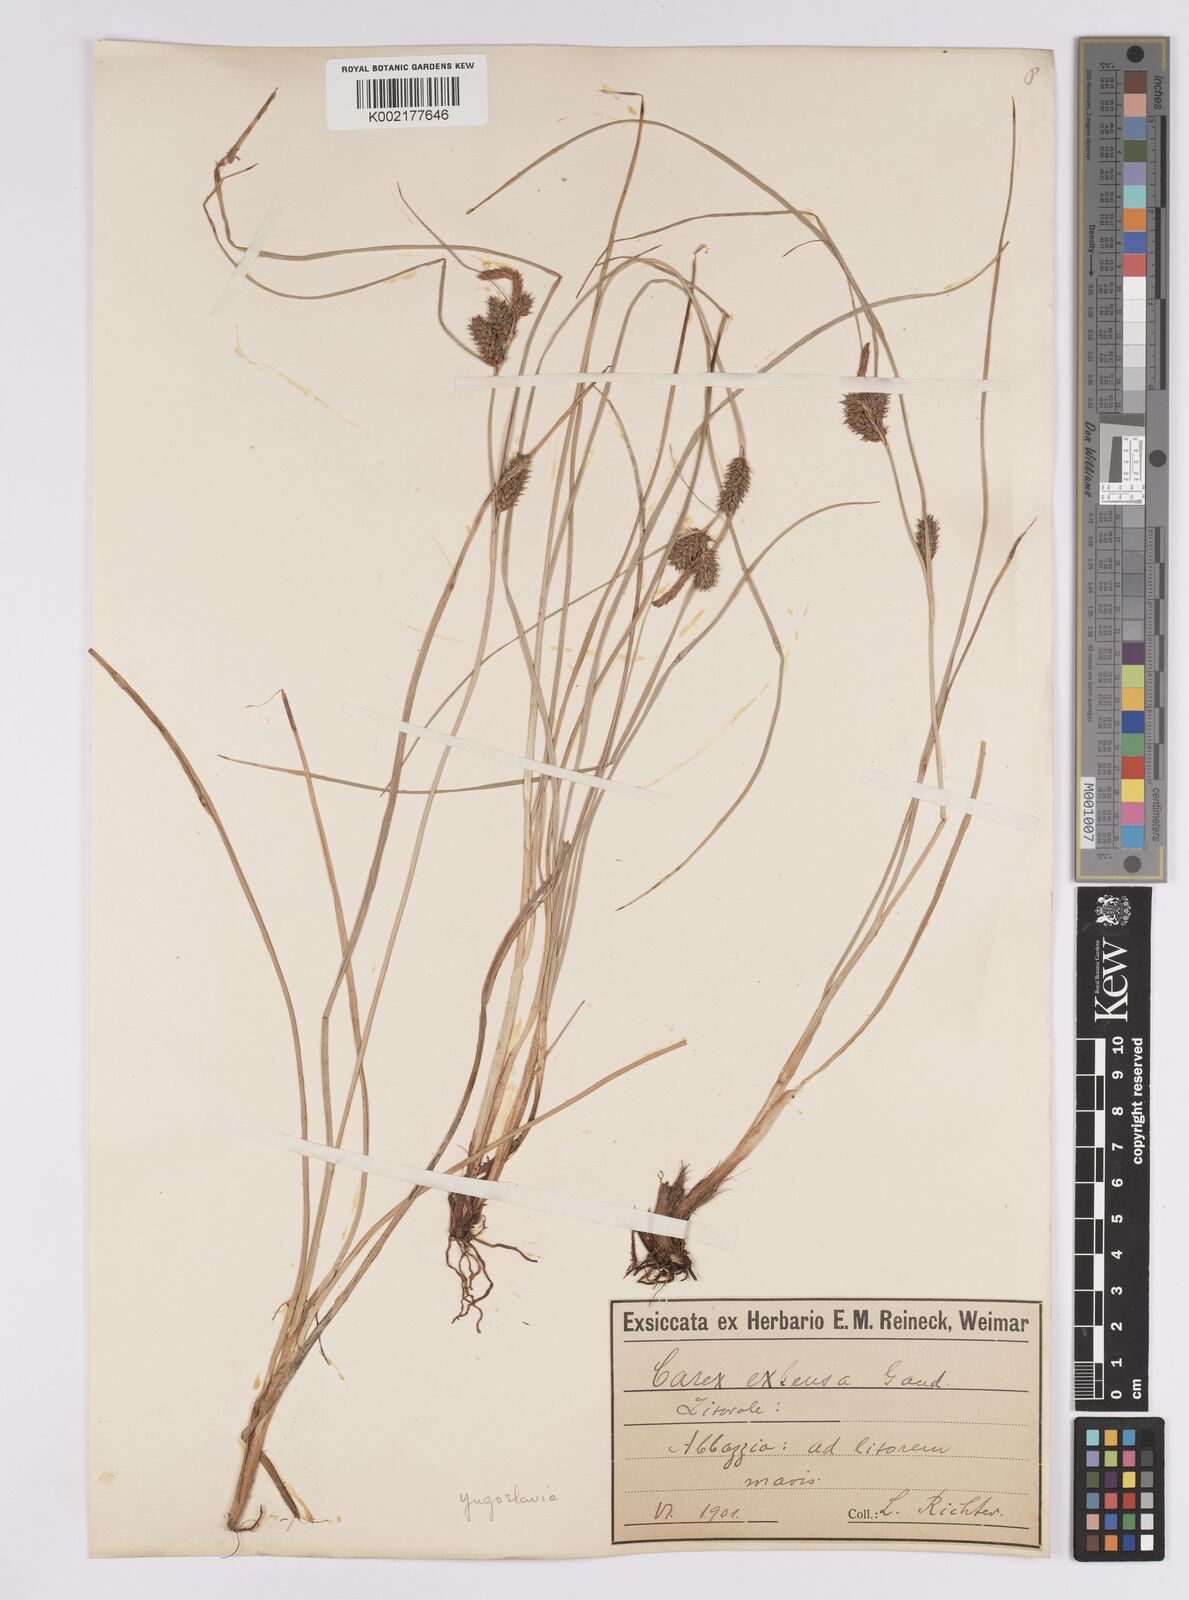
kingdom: Plantae
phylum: Tracheophyta
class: Liliopsida
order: Poales
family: Cyperaceae
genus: Carex
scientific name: Carex extensa
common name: Long-bracted sedge
